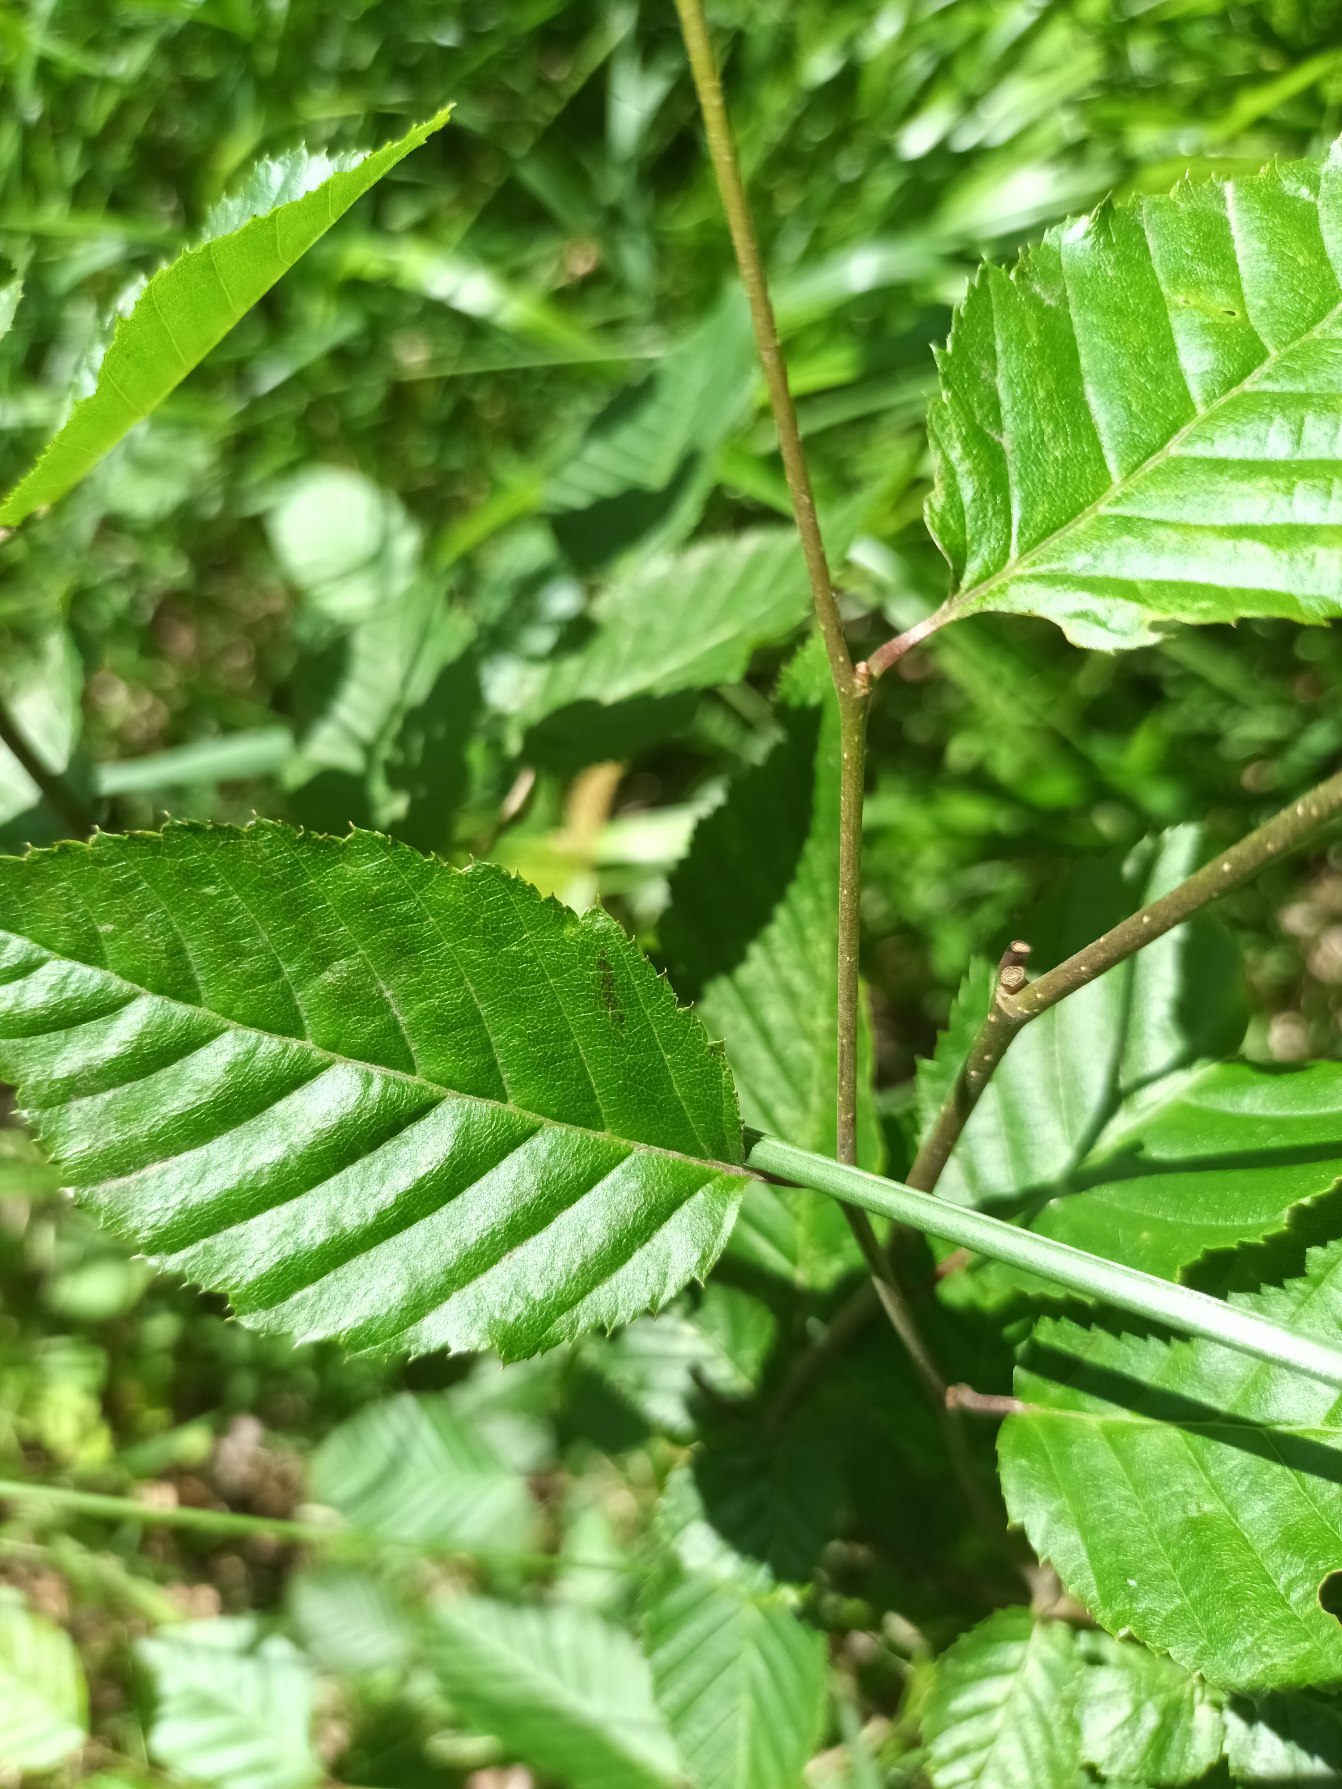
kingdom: Plantae
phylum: Tracheophyta
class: Magnoliopsida
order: Fagales
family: Betulaceae
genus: Carpinus
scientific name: Carpinus betulus
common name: Avnbøg
